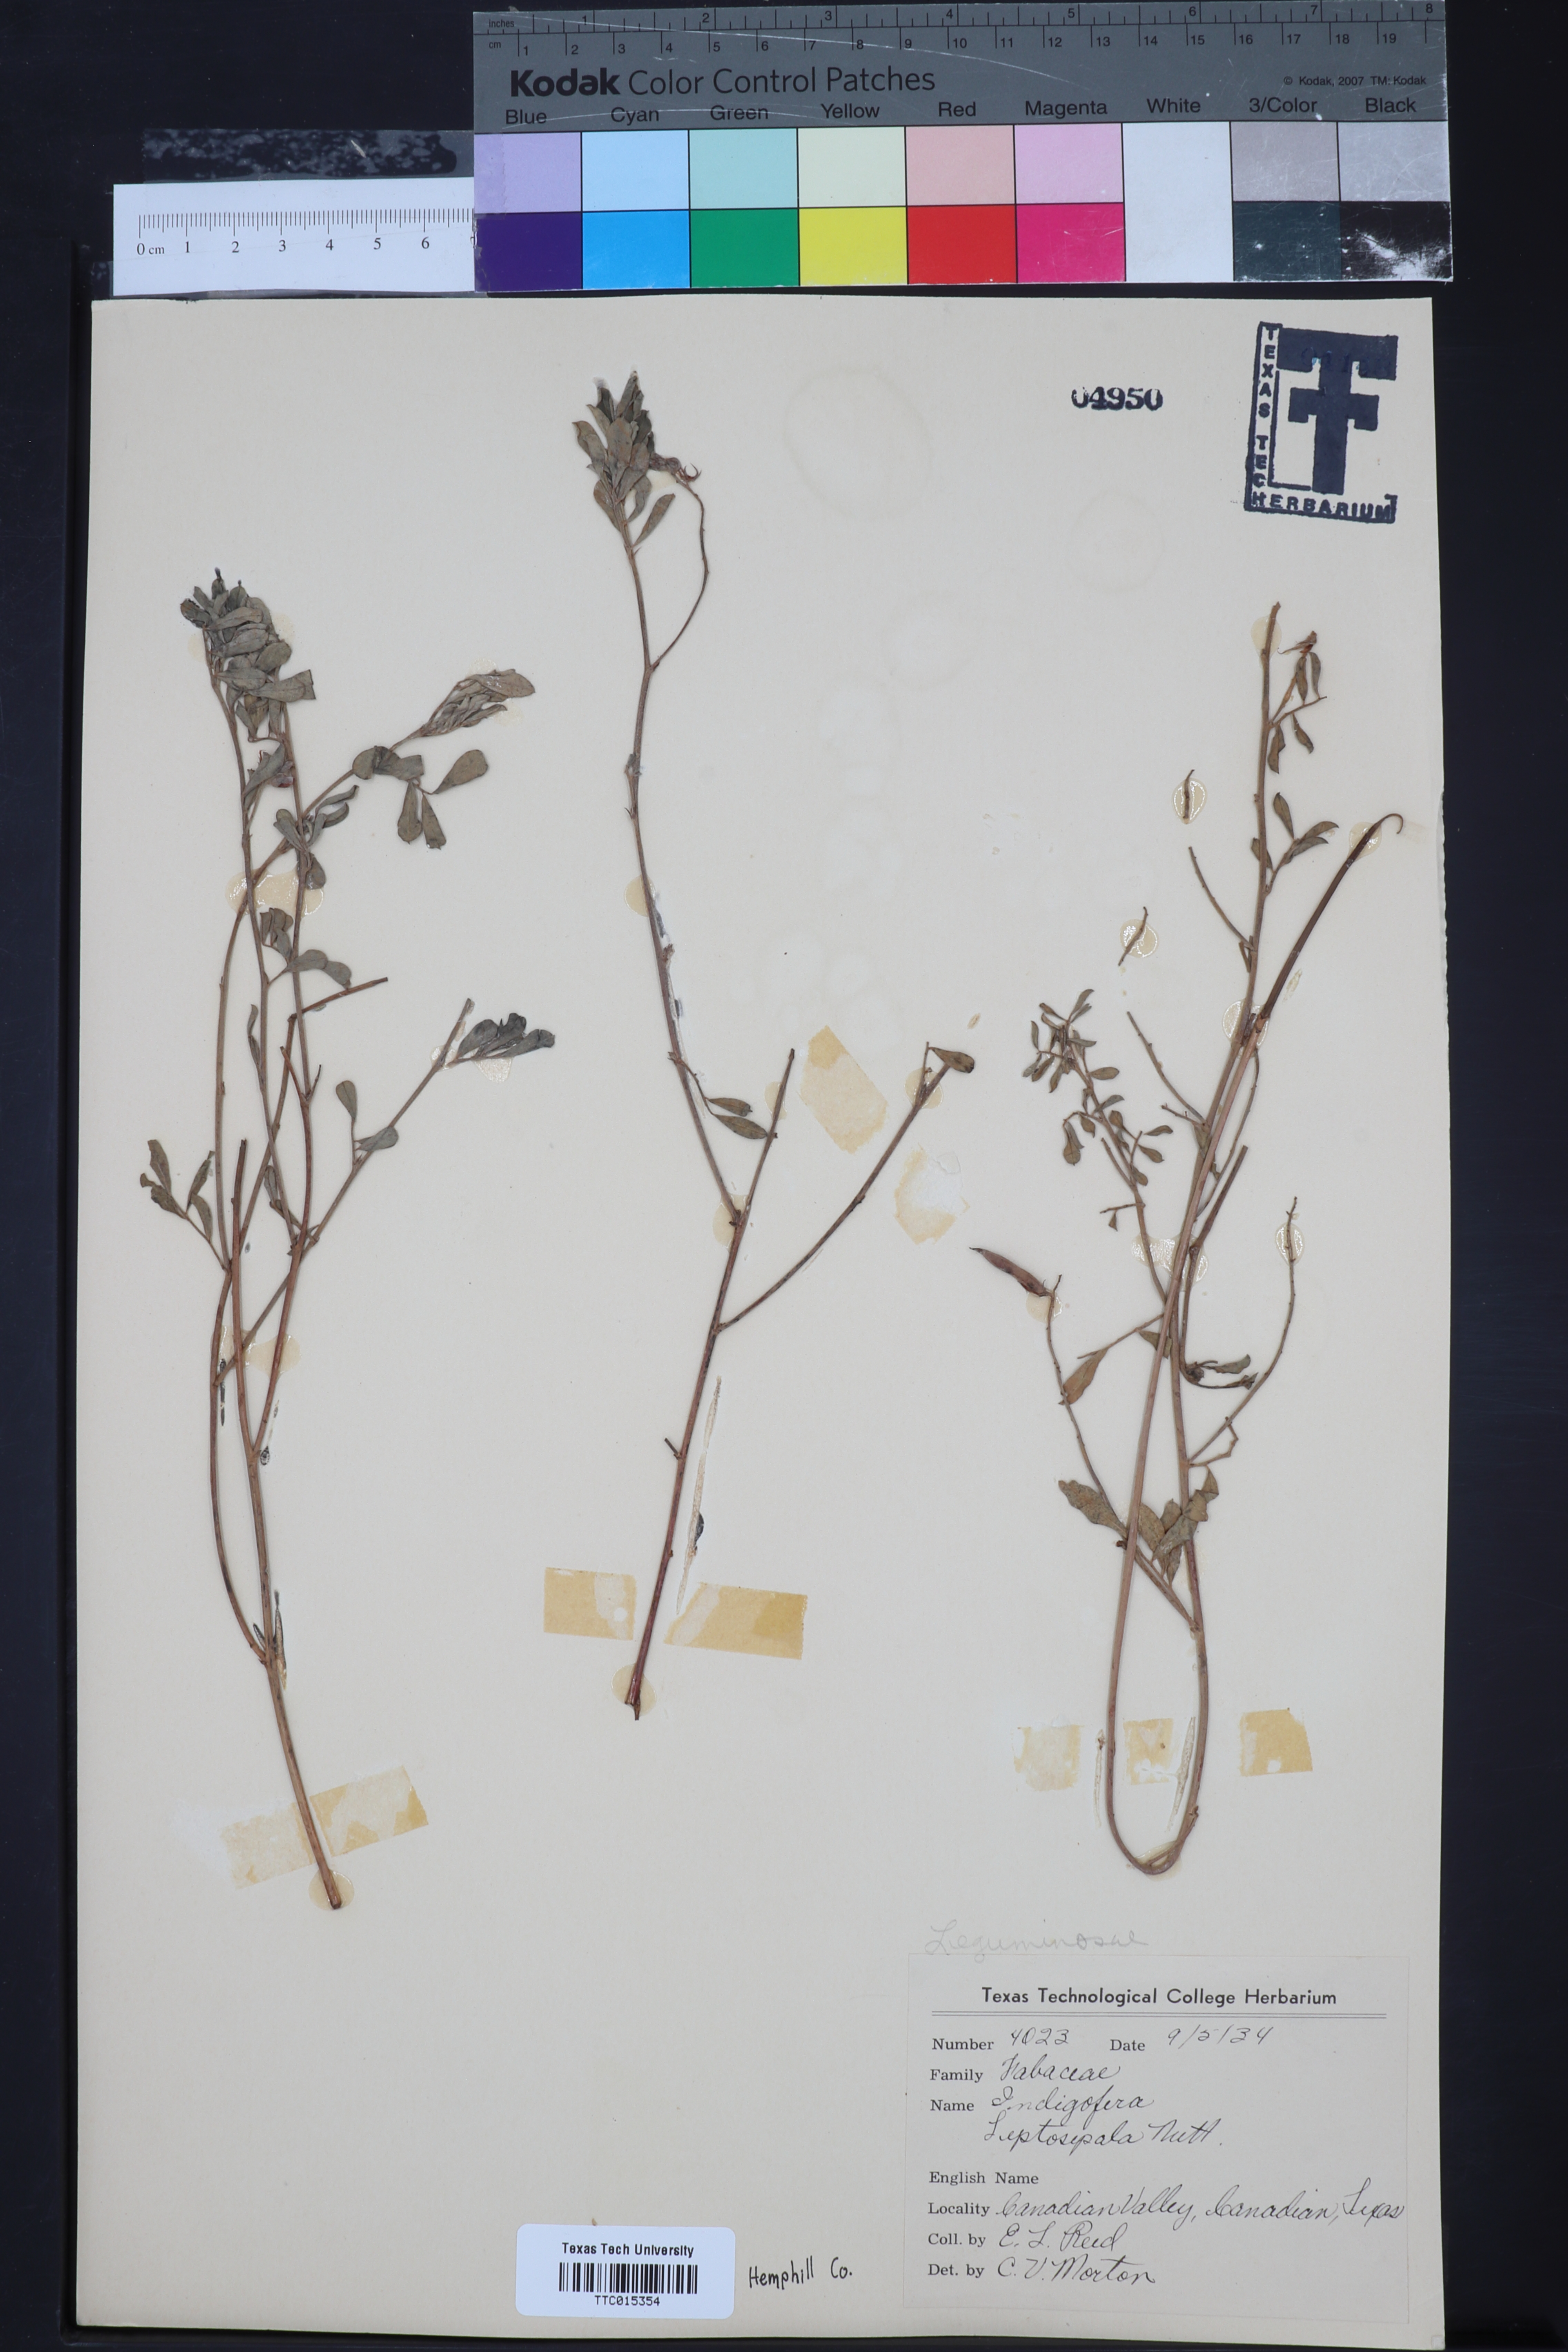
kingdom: Plantae
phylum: Tracheophyta
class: Magnoliopsida
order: Fabales
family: Fabaceae
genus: Indigofera
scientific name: Indigofera argutidens
